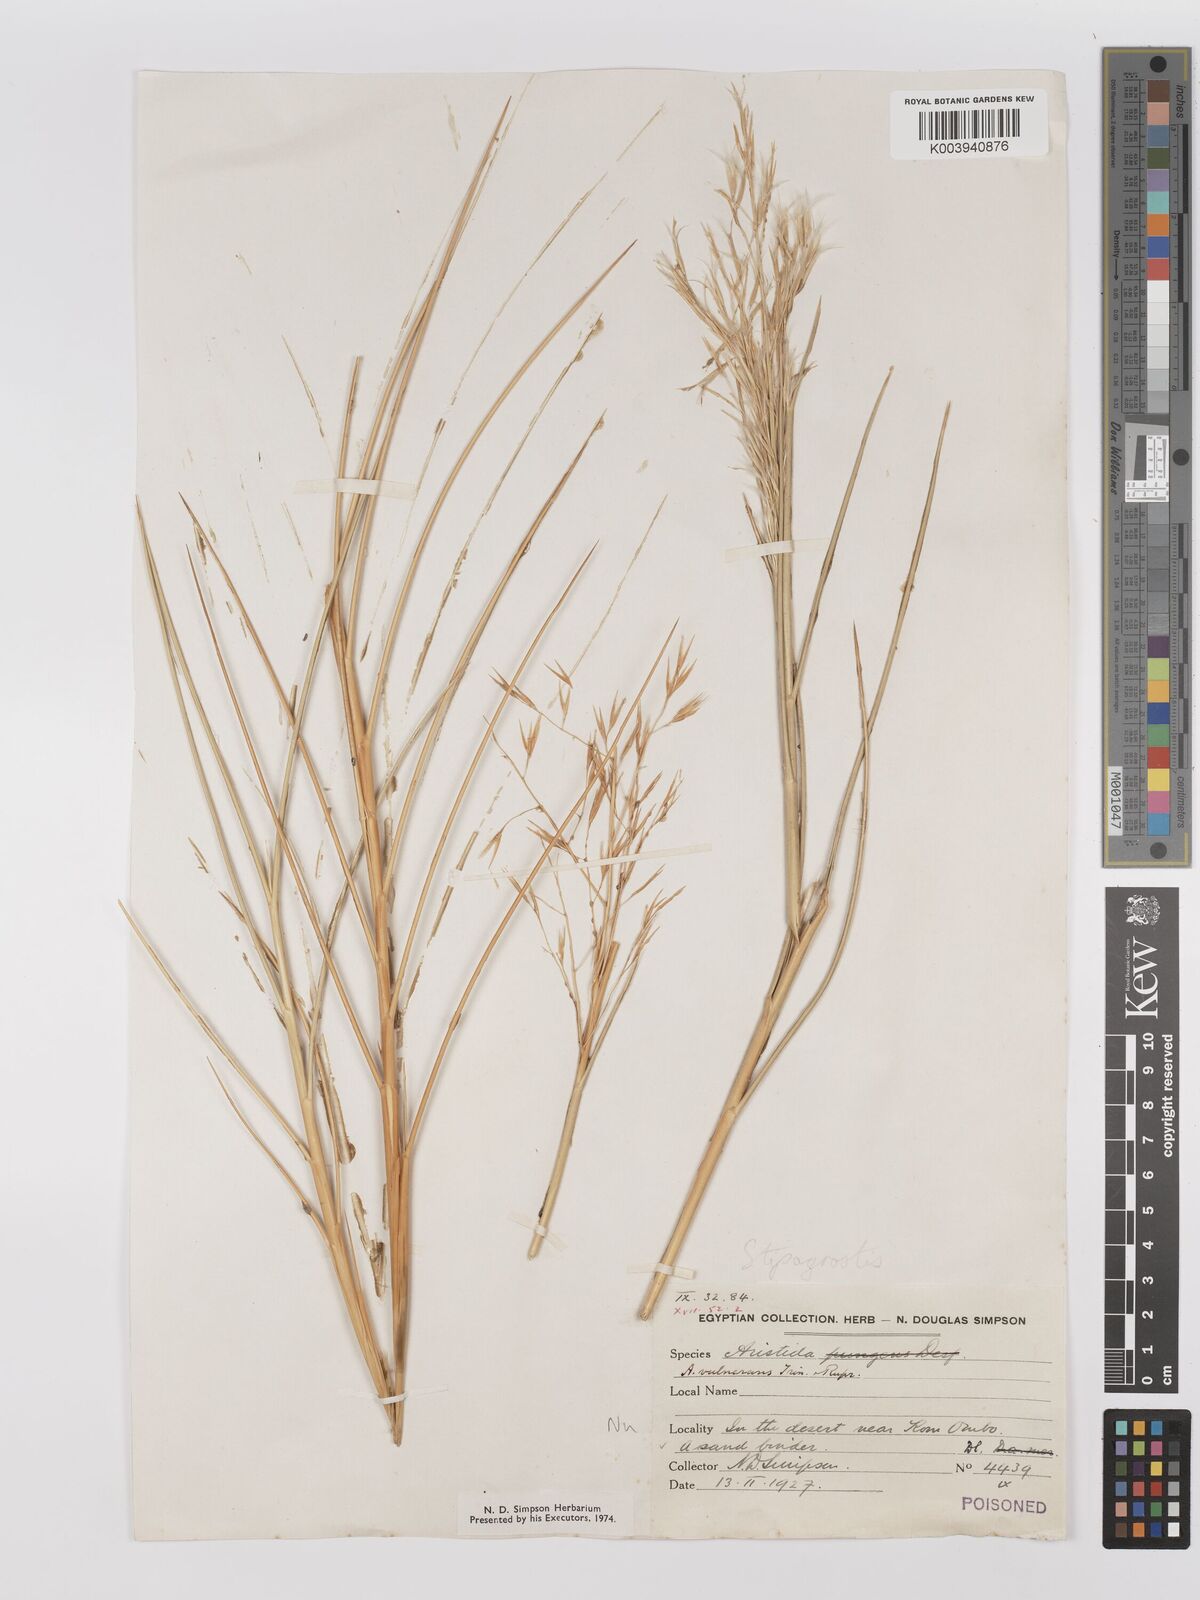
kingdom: Plantae
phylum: Tracheophyta
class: Liliopsida
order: Poales
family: Poaceae
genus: Stipagrostis
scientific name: Stipagrostis vulnerans
